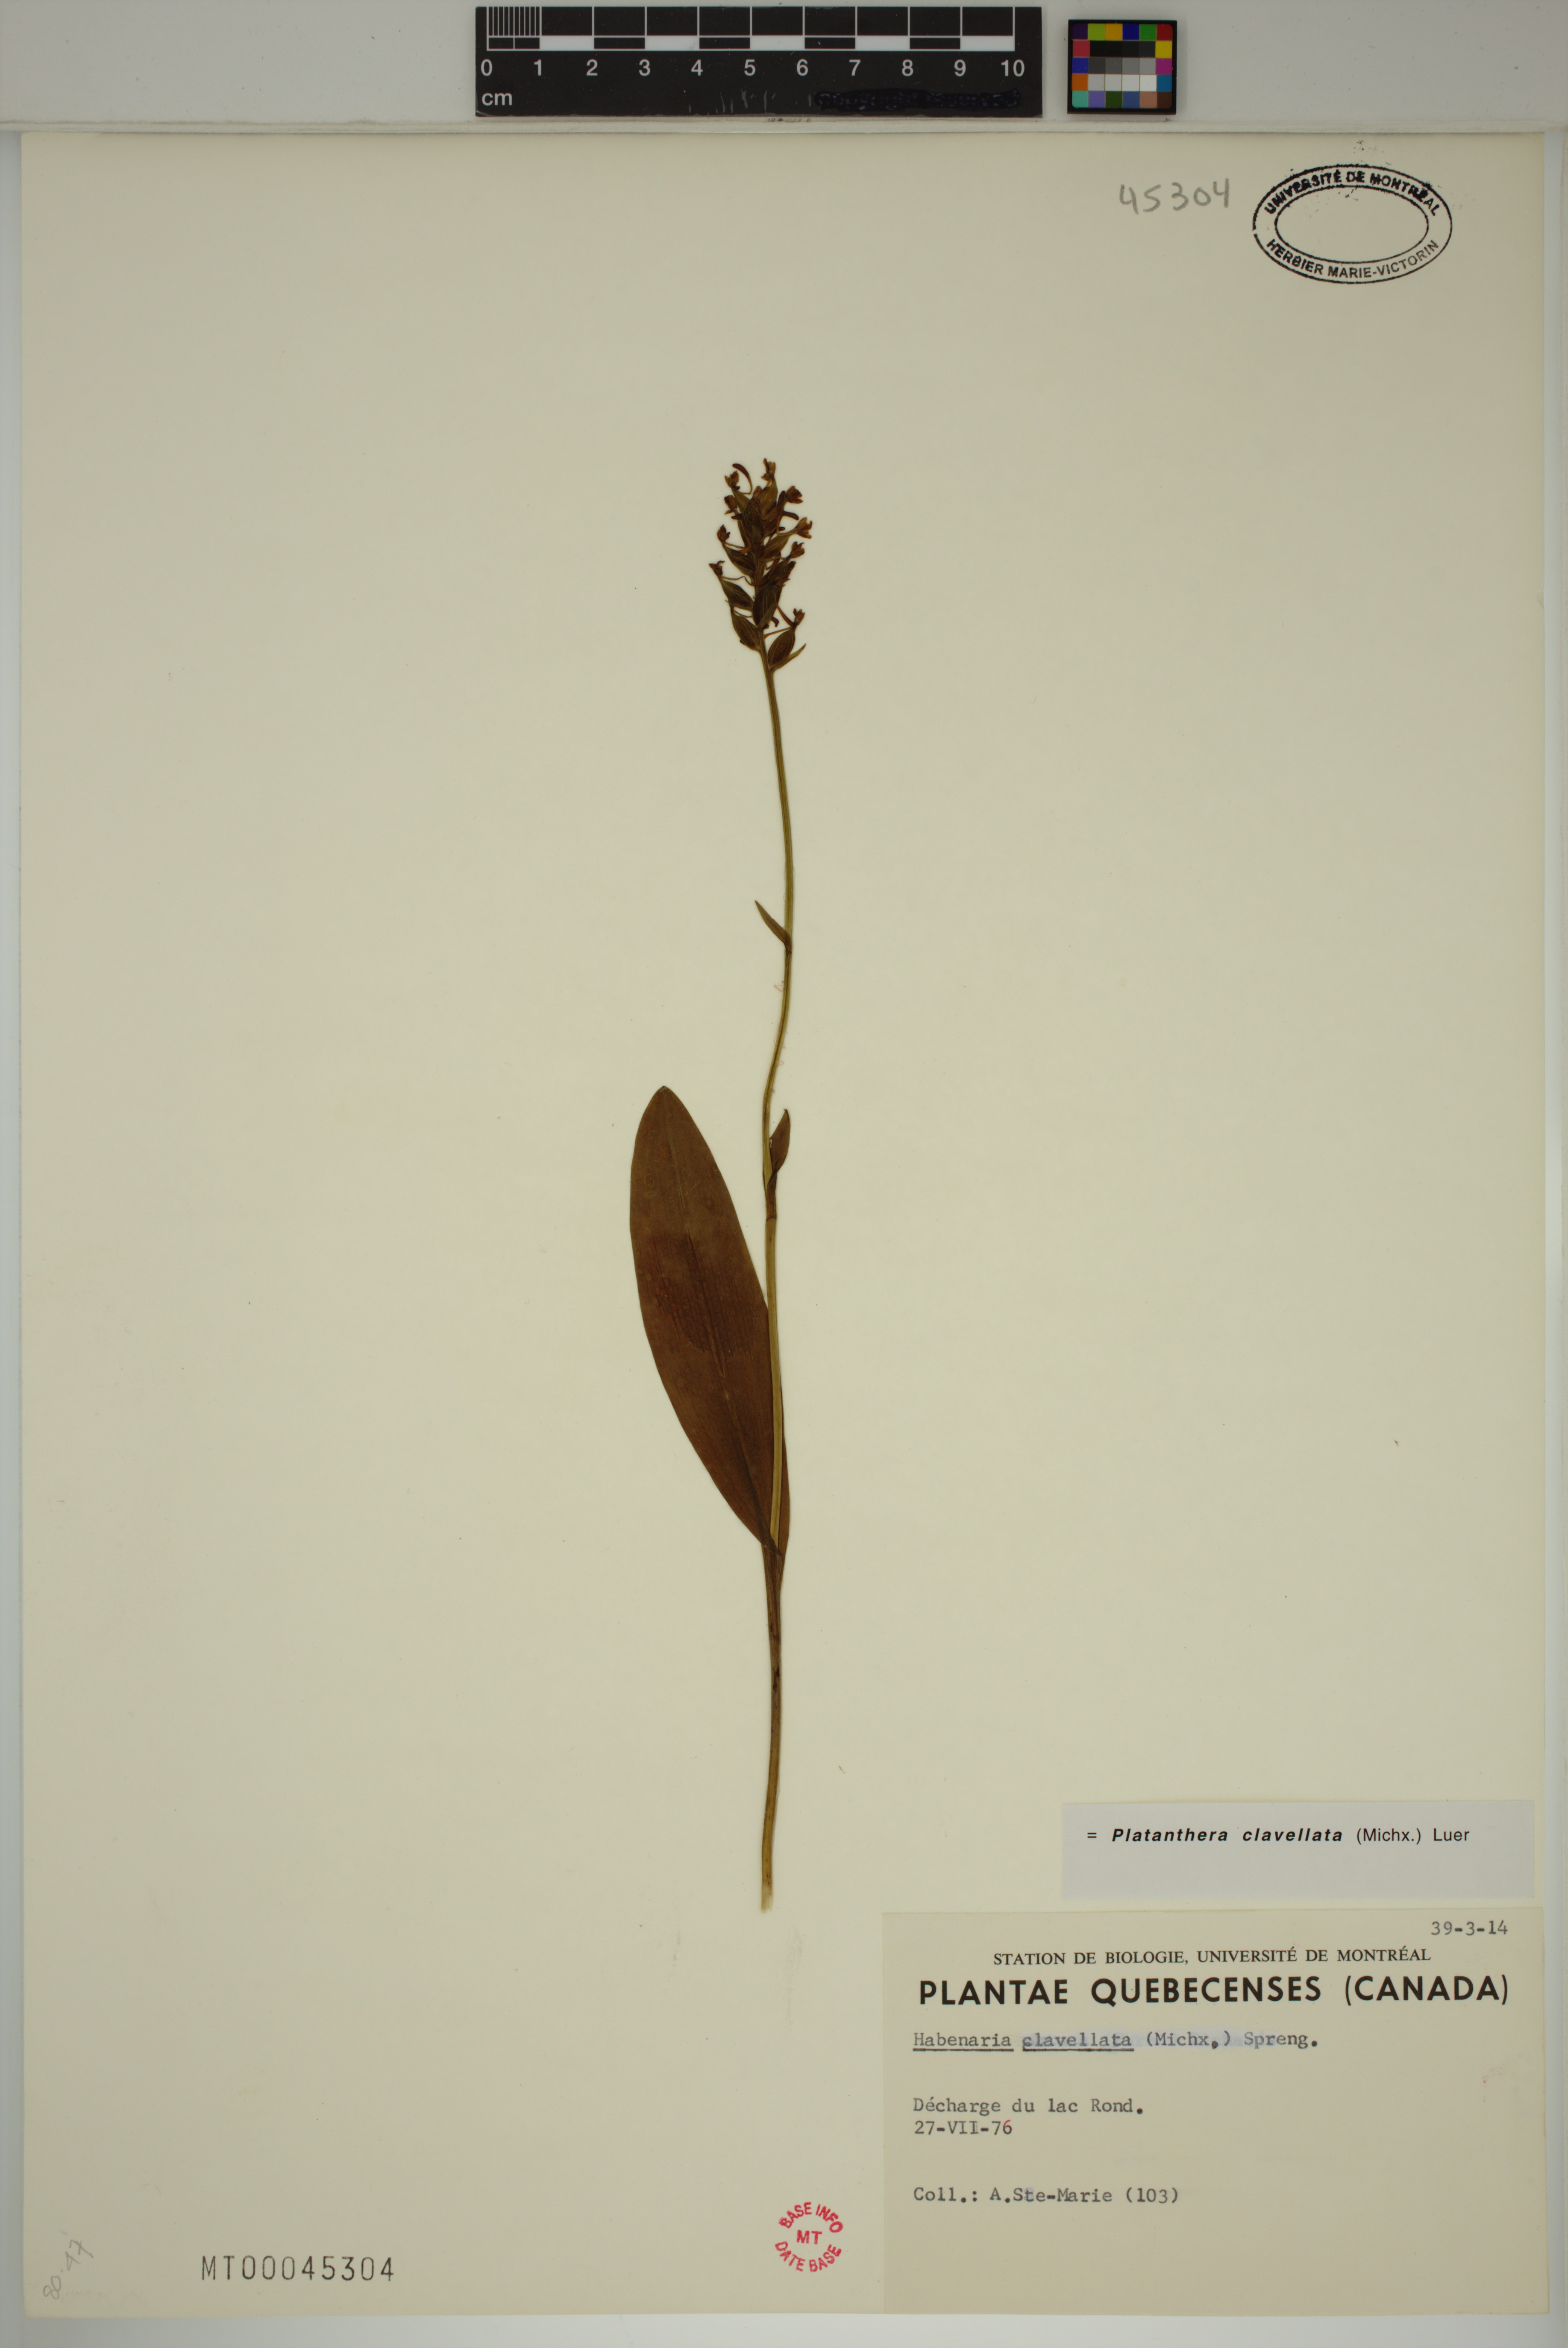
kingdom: Plantae
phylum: Tracheophyta
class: Liliopsida
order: Asparagales
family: Orchidaceae
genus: Platanthera
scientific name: Platanthera clavellata
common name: Club-spur orchid
